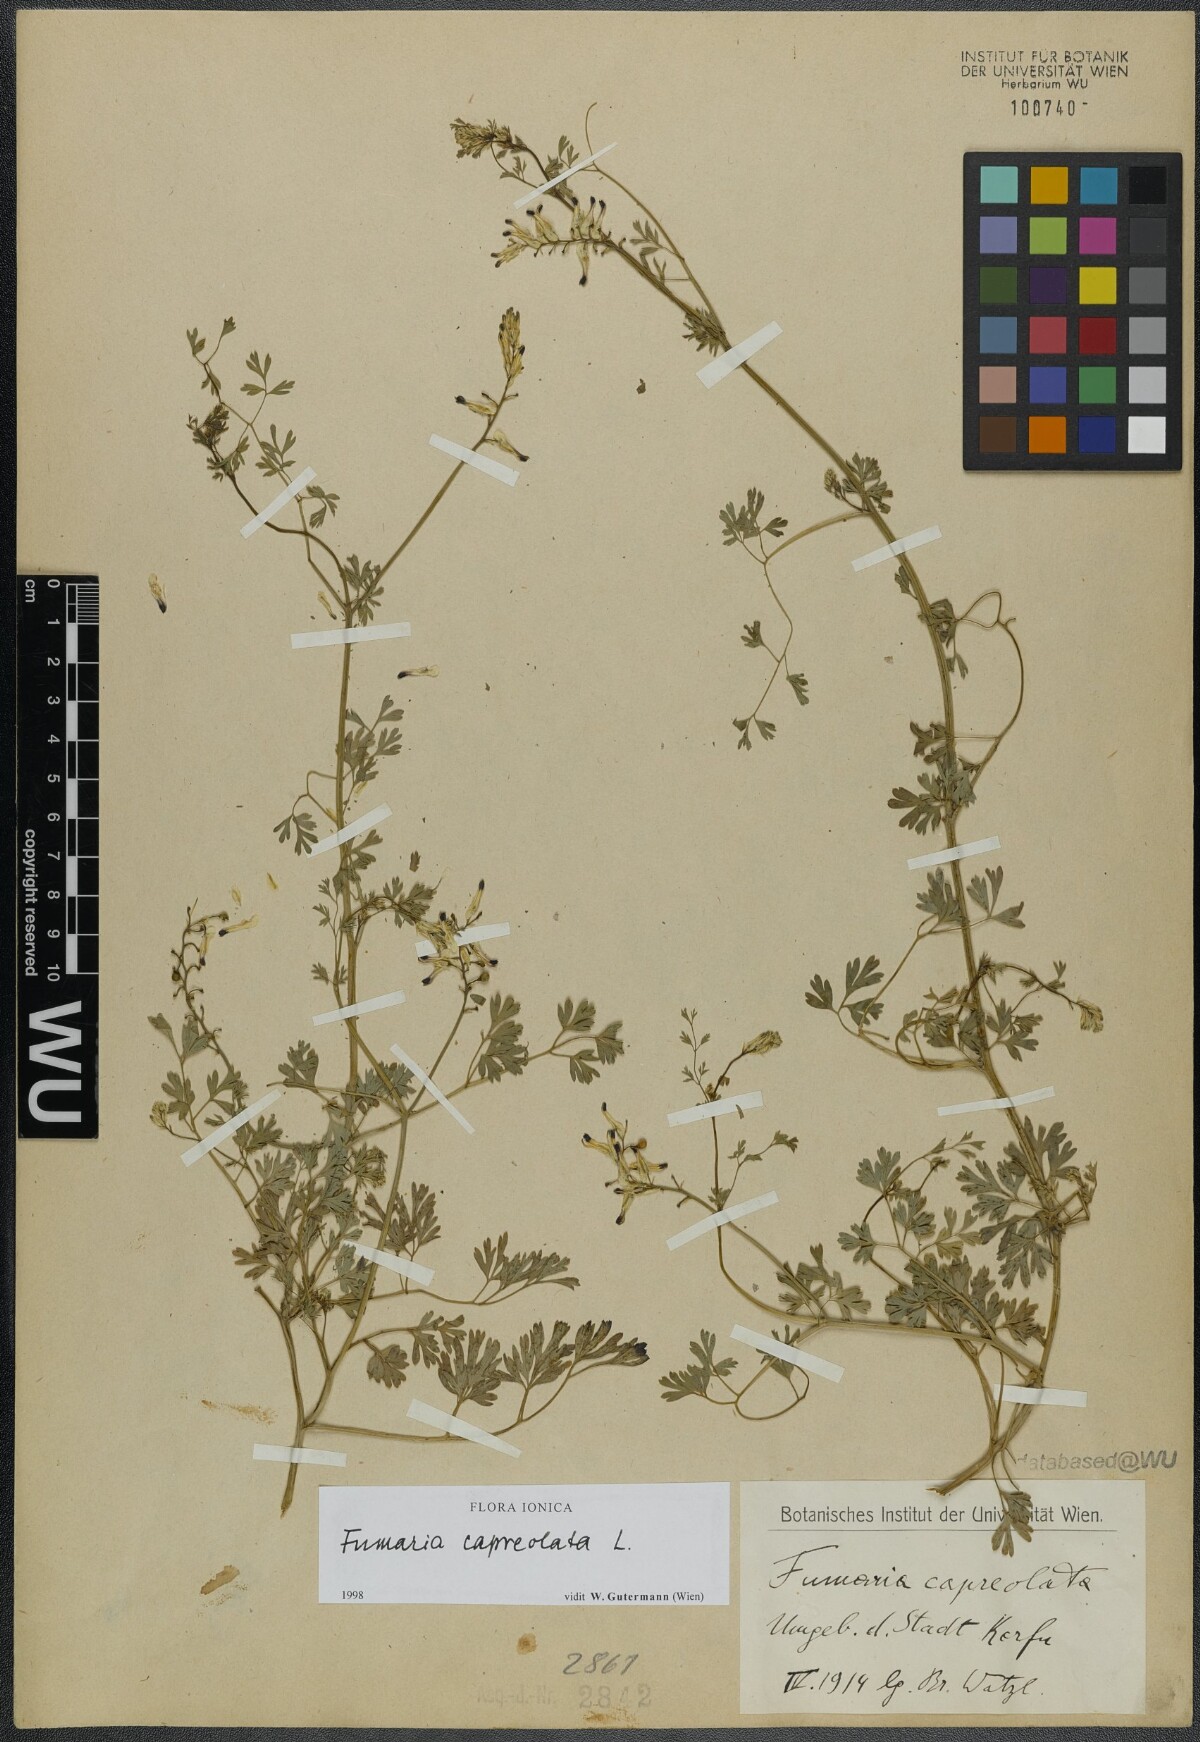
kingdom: Plantae
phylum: Tracheophyta
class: Magnoliopsida
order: Ranunculales
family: Papaveraceae
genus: Fumaria
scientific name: Fumaria capreolata
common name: White ramping-fumitory
